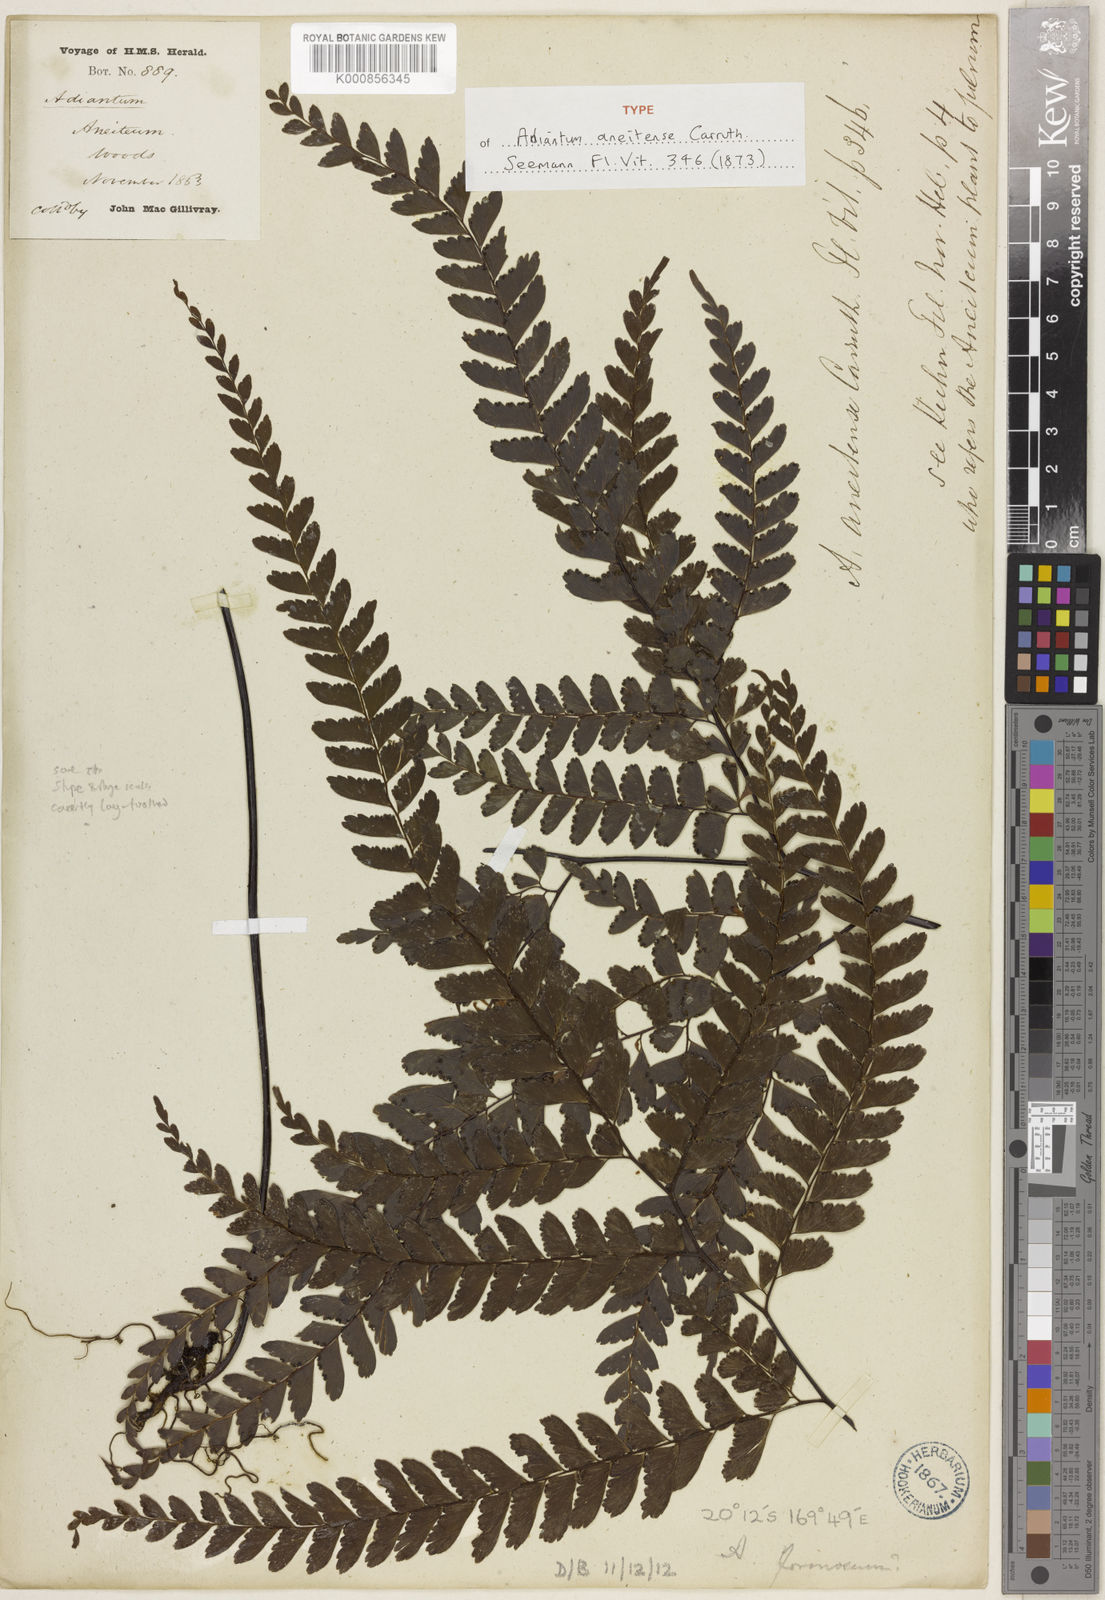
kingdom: Plantae
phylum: Tracheophyta
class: Polypodiopsida
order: Polypodiales
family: Pteridaceae
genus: Adiantum
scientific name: Adiantum aneitense
